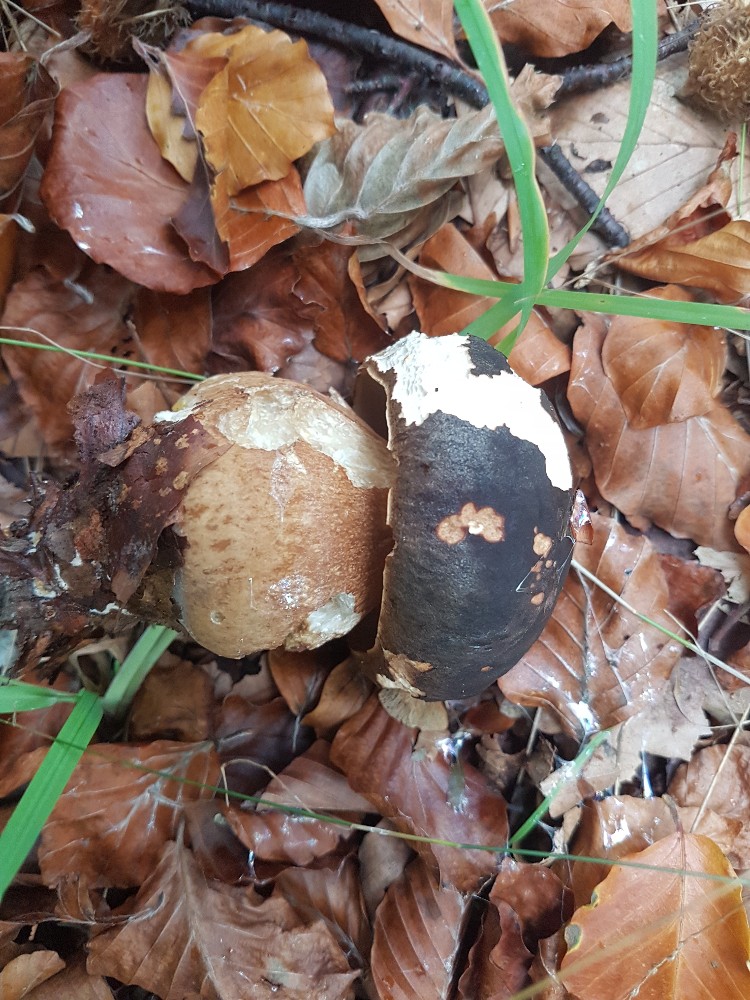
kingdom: Fungi
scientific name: Fungi
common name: bronze-rørhat
